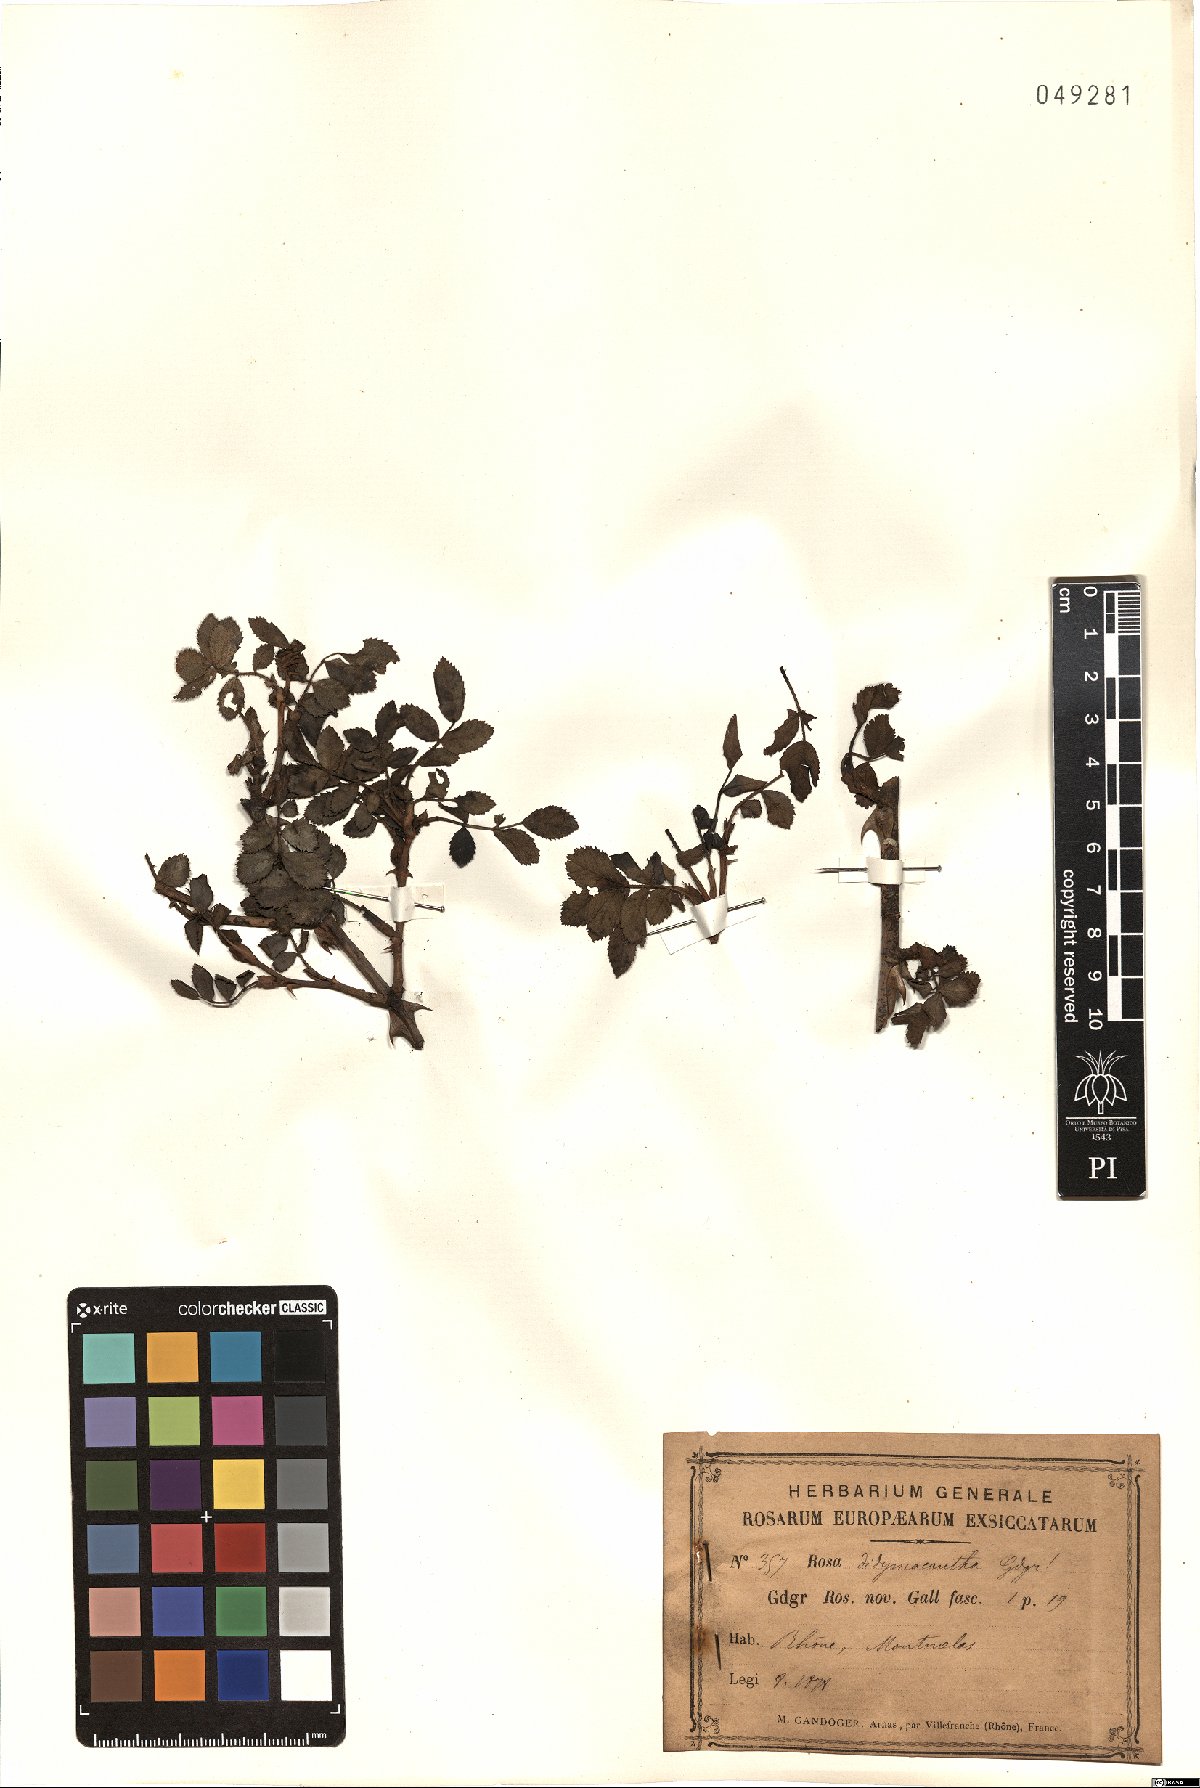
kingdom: Plantae
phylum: Tracheophyta
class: Magnoliopsida
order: Rosales
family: Rosaceae
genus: Rosa
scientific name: Rosa didymacantha
